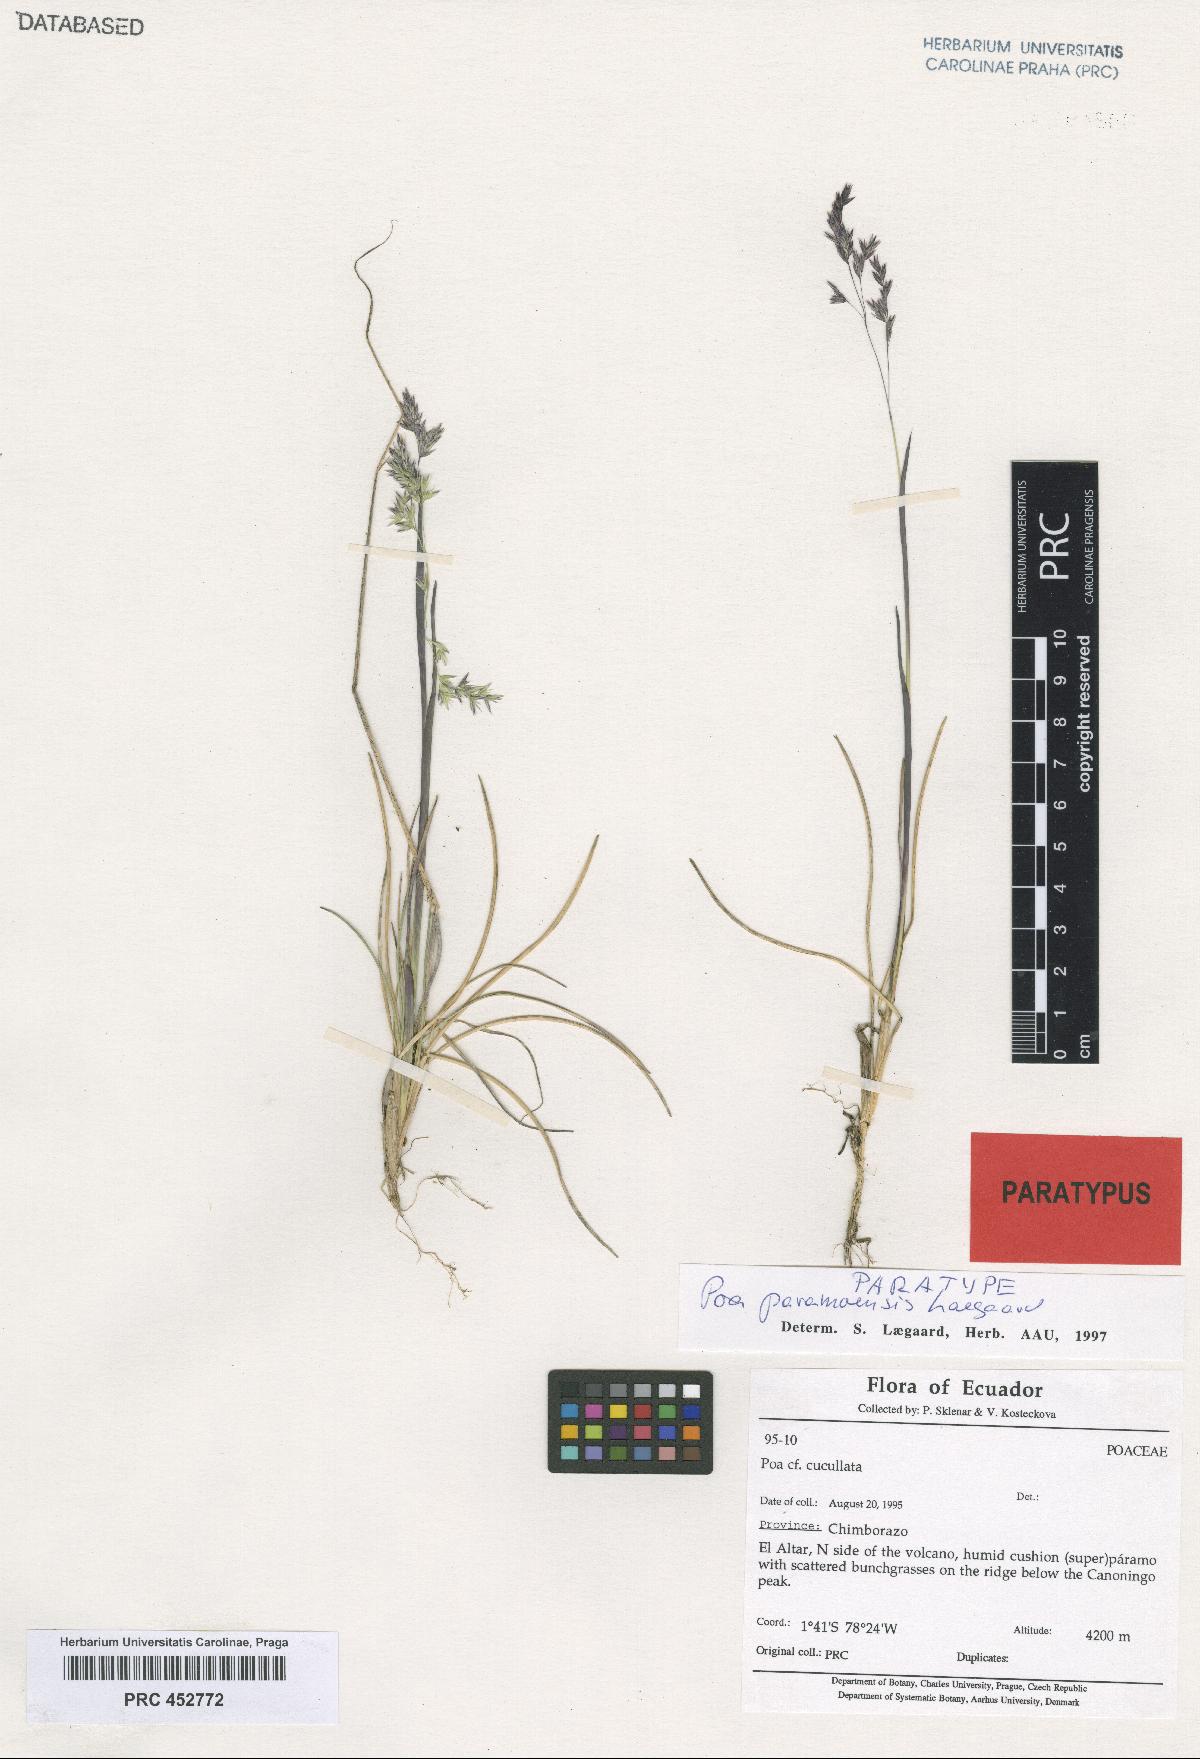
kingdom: Plantae
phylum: Tracheophyta
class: Liliopsida
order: Poales
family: Poaceae
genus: Poa
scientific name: Poa huancavelicae
